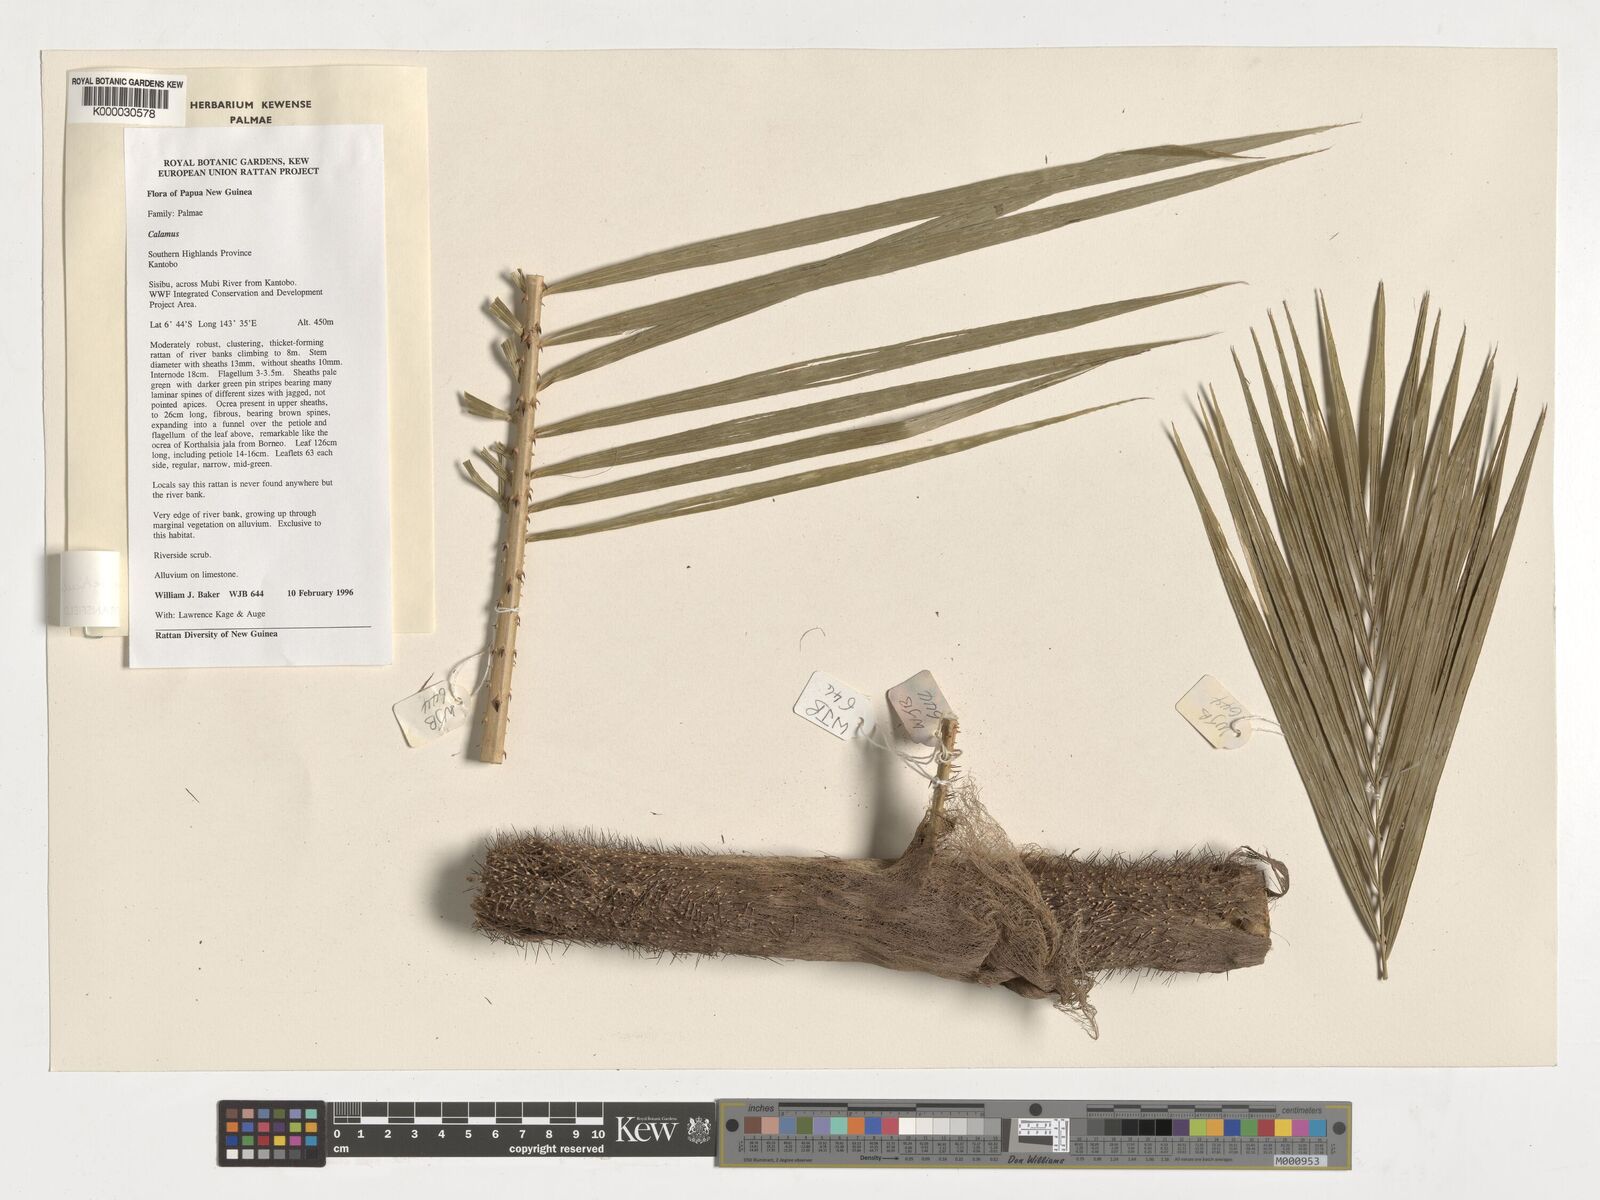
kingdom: Plantae
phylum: Tracheophyta
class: Liliopsida
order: Arecales
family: Arecaceae
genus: Calamus
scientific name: Calamus reticulatus
